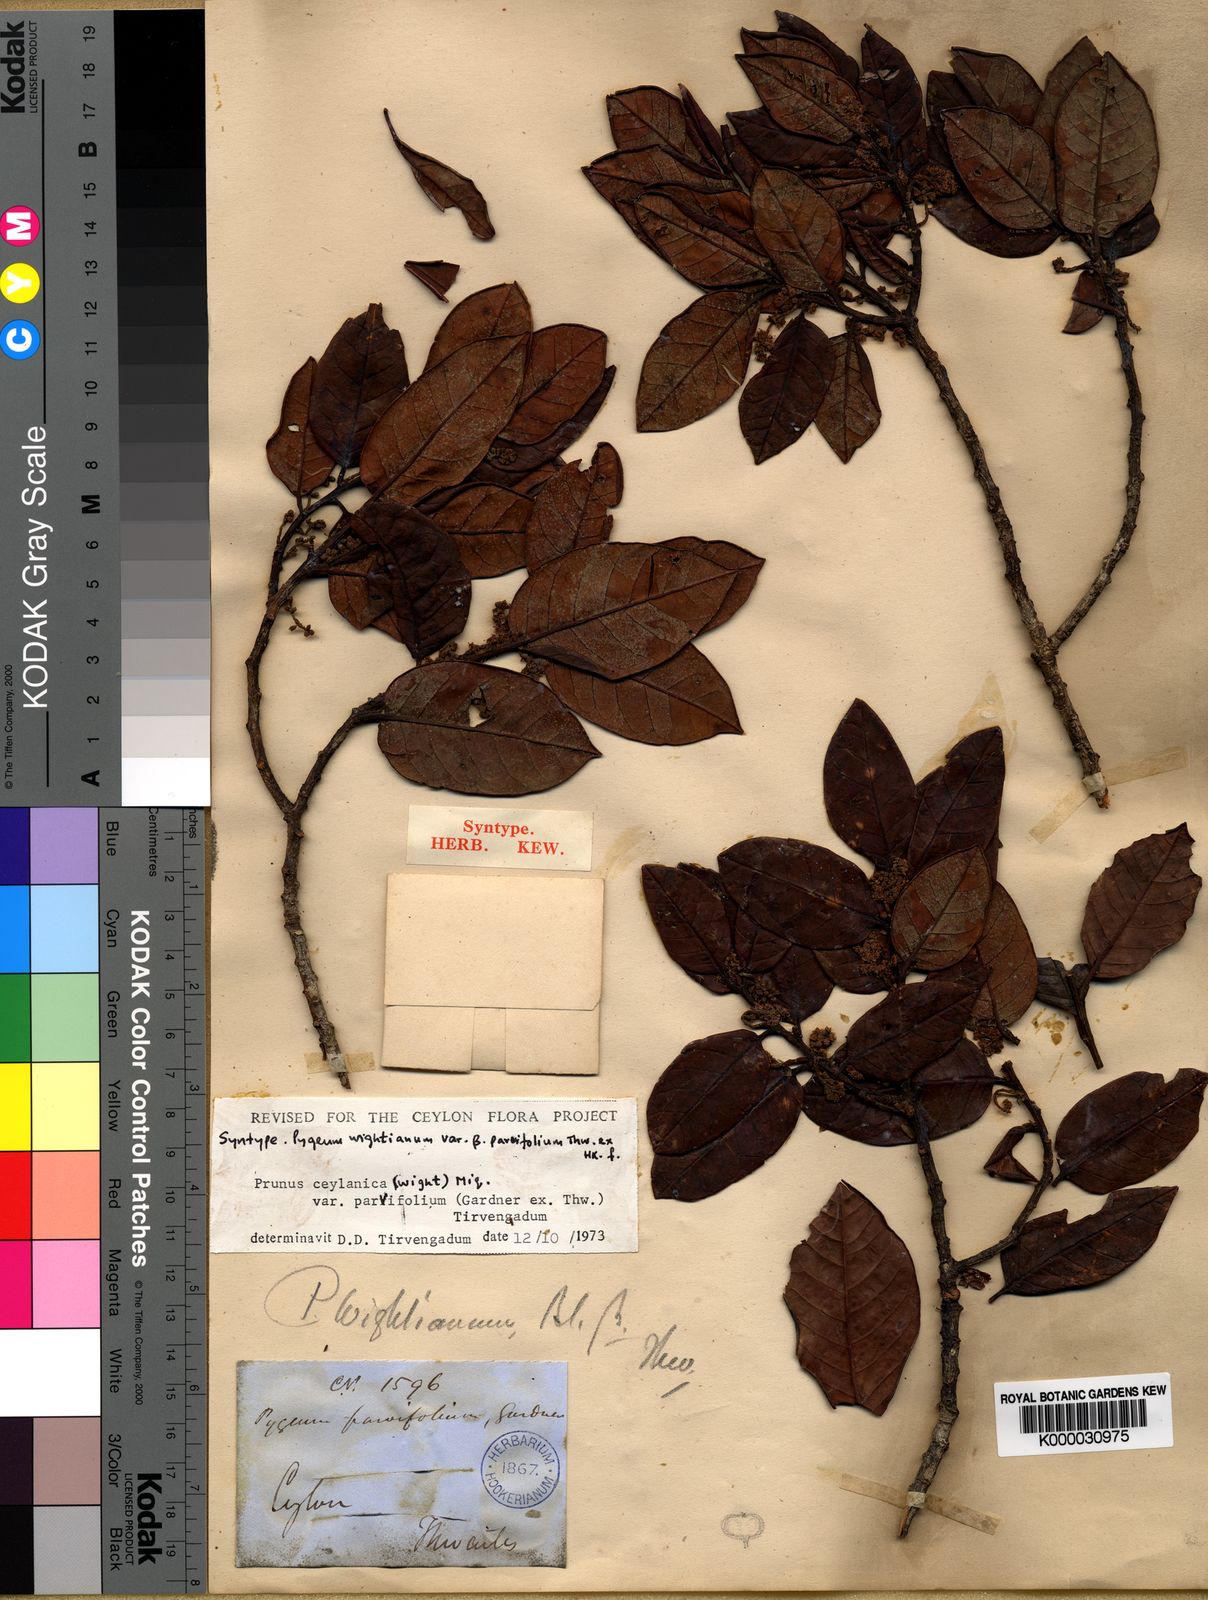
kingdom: Plantae
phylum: Tracheophyta
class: Magnoliopsida
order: Rosales
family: Rosaceae
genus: Prunus
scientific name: Prunus ceylanica
